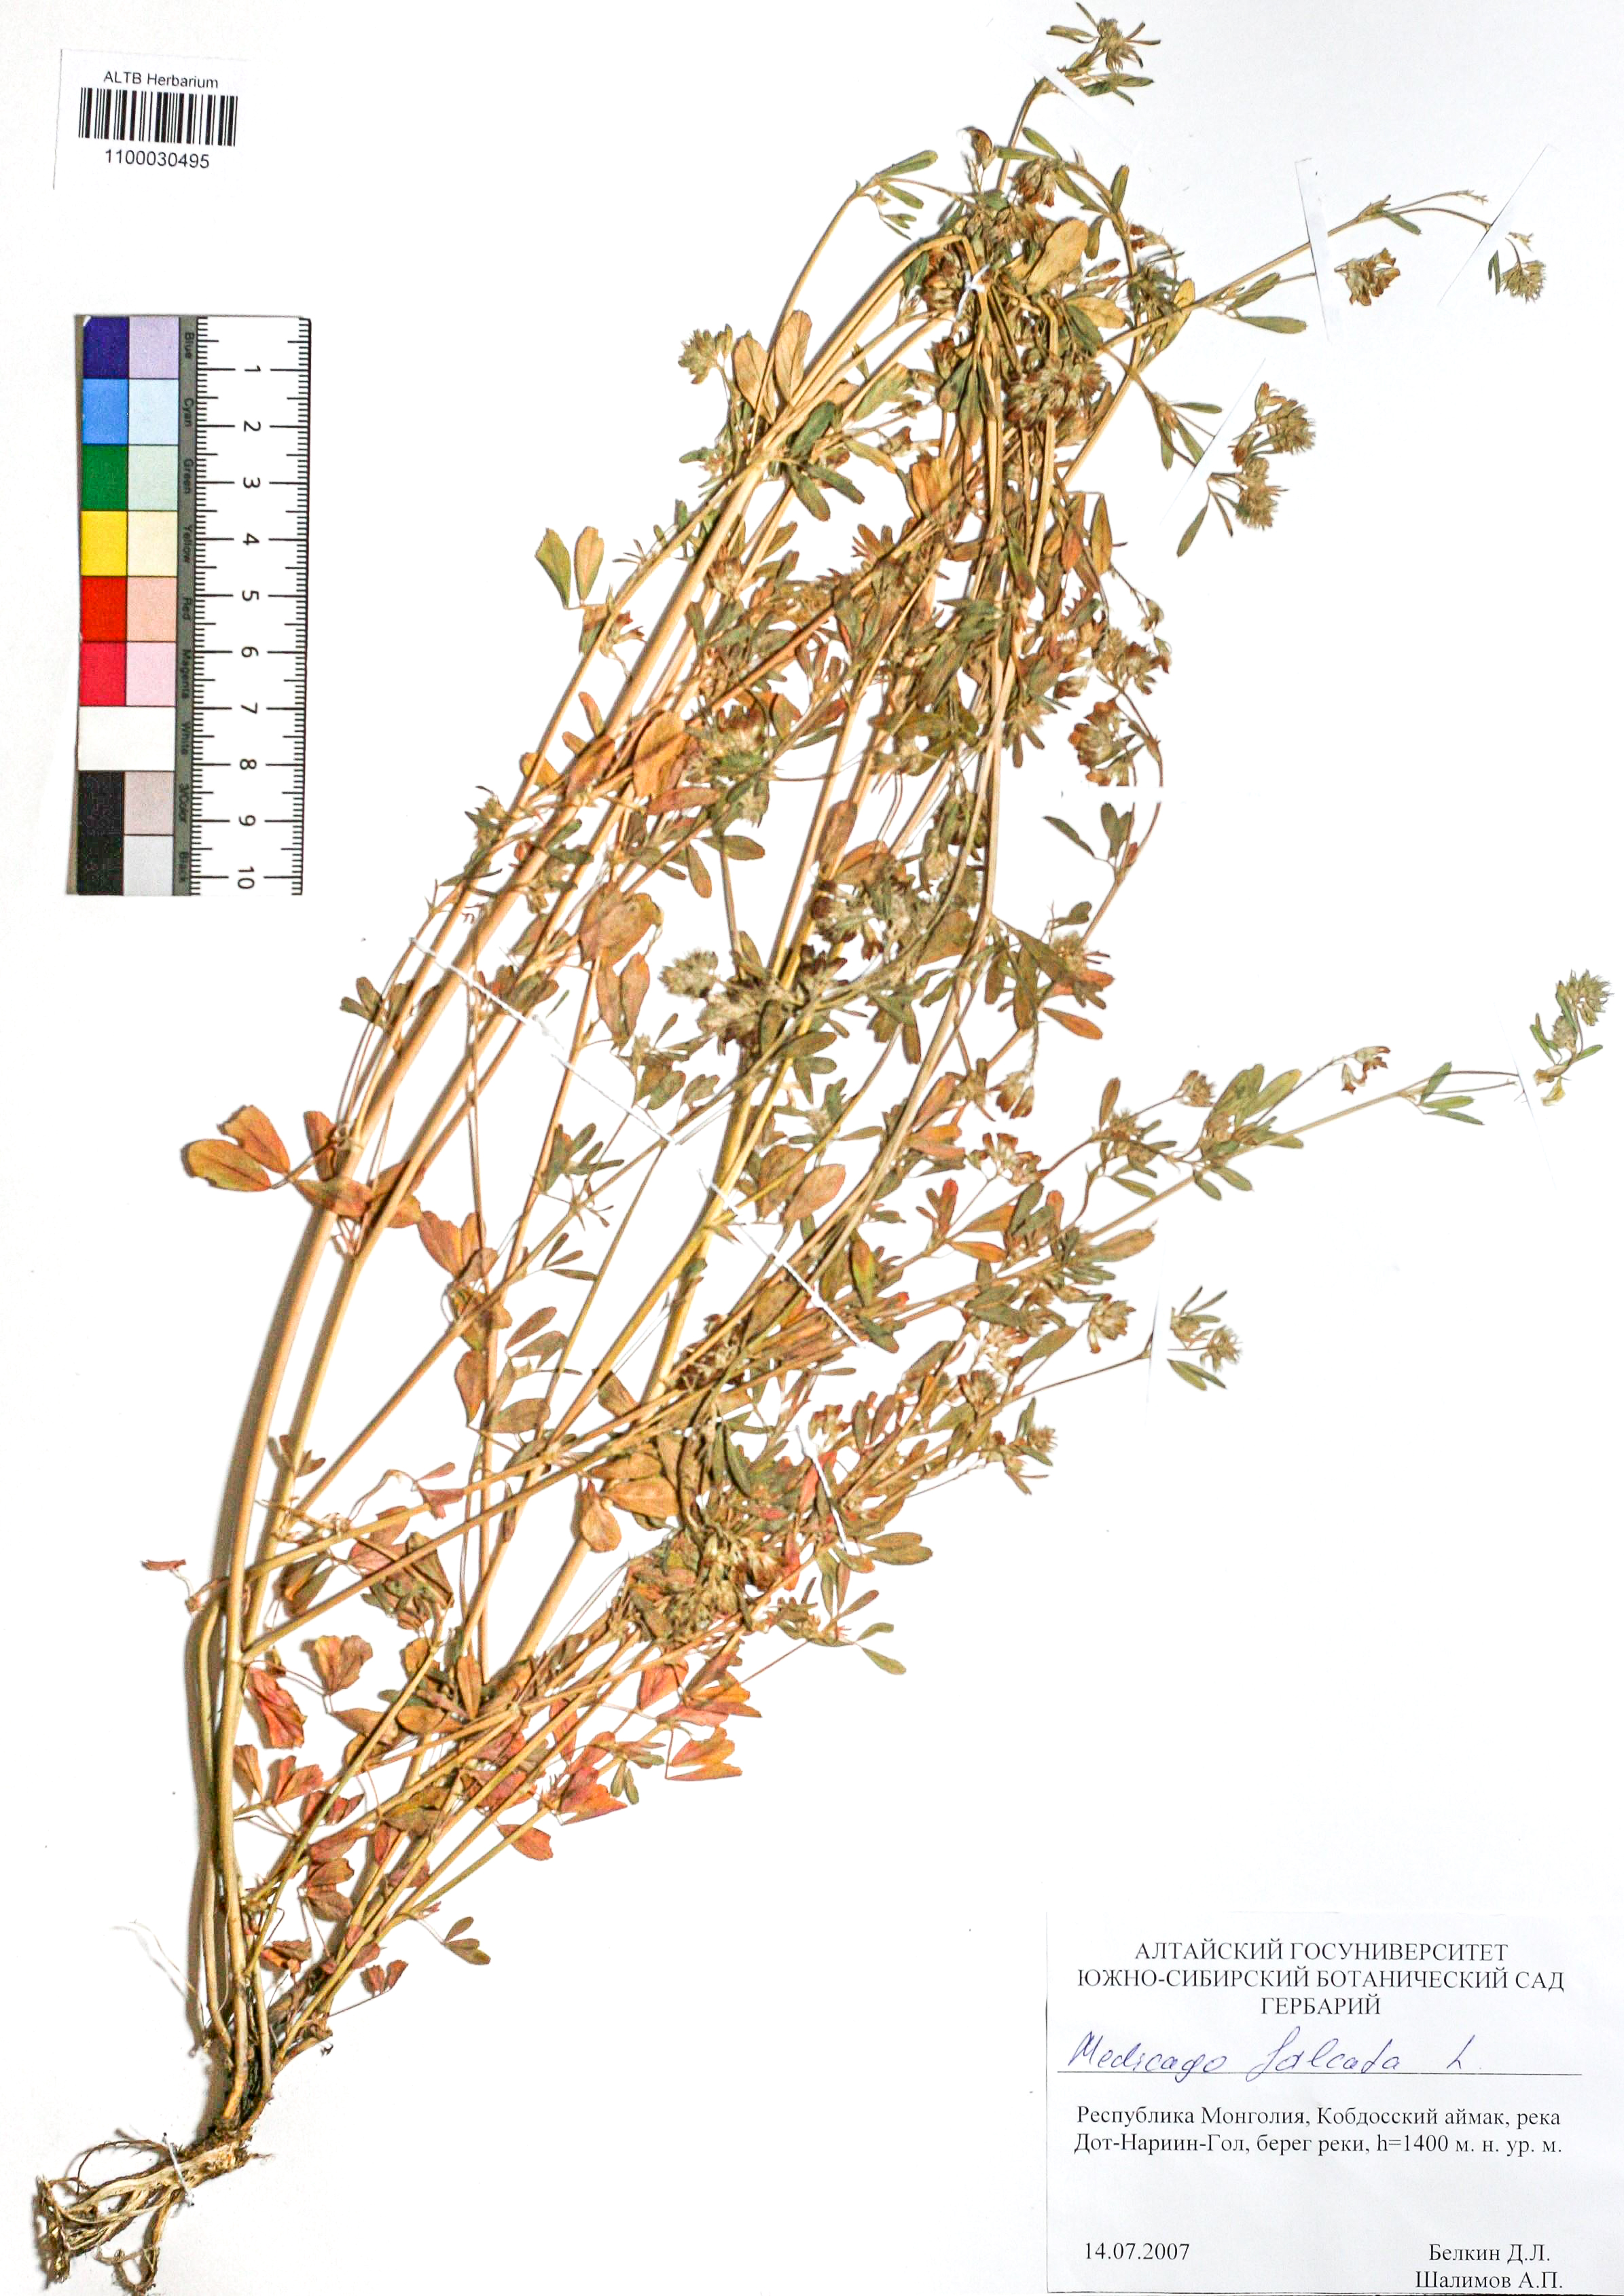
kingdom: Plantae
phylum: Tracheophyta
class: Magnoliopsida
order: Fabales
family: Fabaceae
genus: Medicago
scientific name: Medicago falcata
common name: Sickle medick
